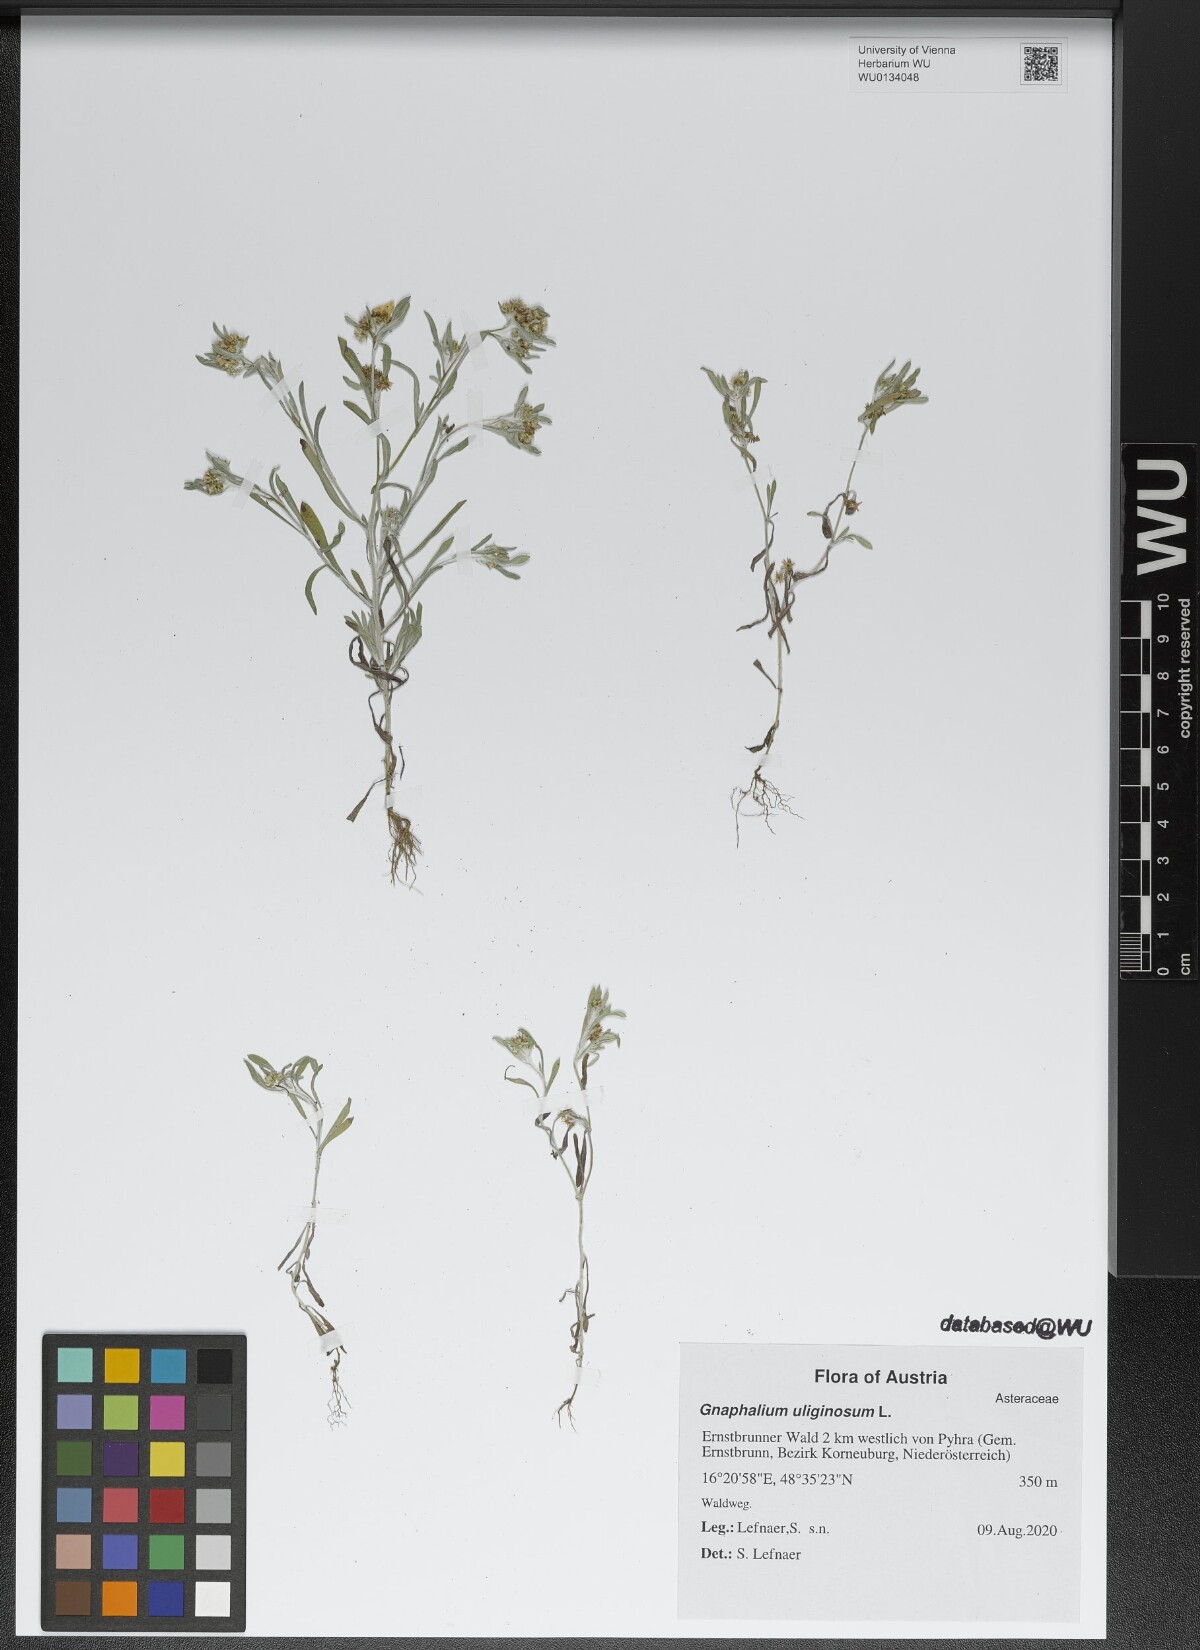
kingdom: Plantae
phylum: Tracheophyta
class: Magnoliopsida
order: Asterales
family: Asteraceae
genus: Gnaphalium
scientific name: Gnaphalium uliginosum
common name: Marsh cudweed
